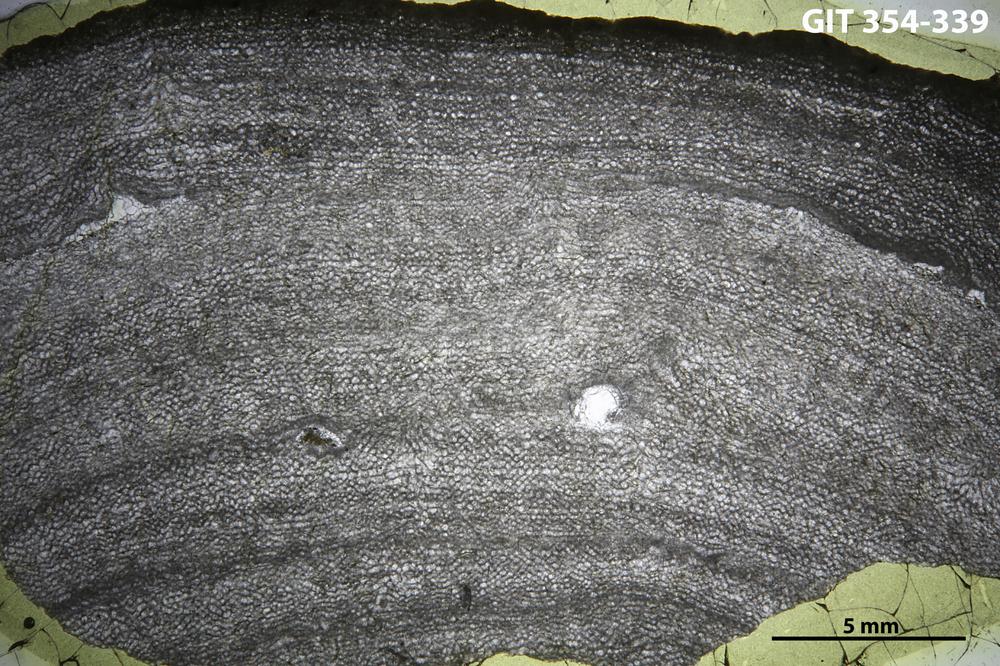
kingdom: Animalia
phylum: Porifera
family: Ecclimadictyidae
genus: Ecclimadictyon
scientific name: Ecclimadictyon
